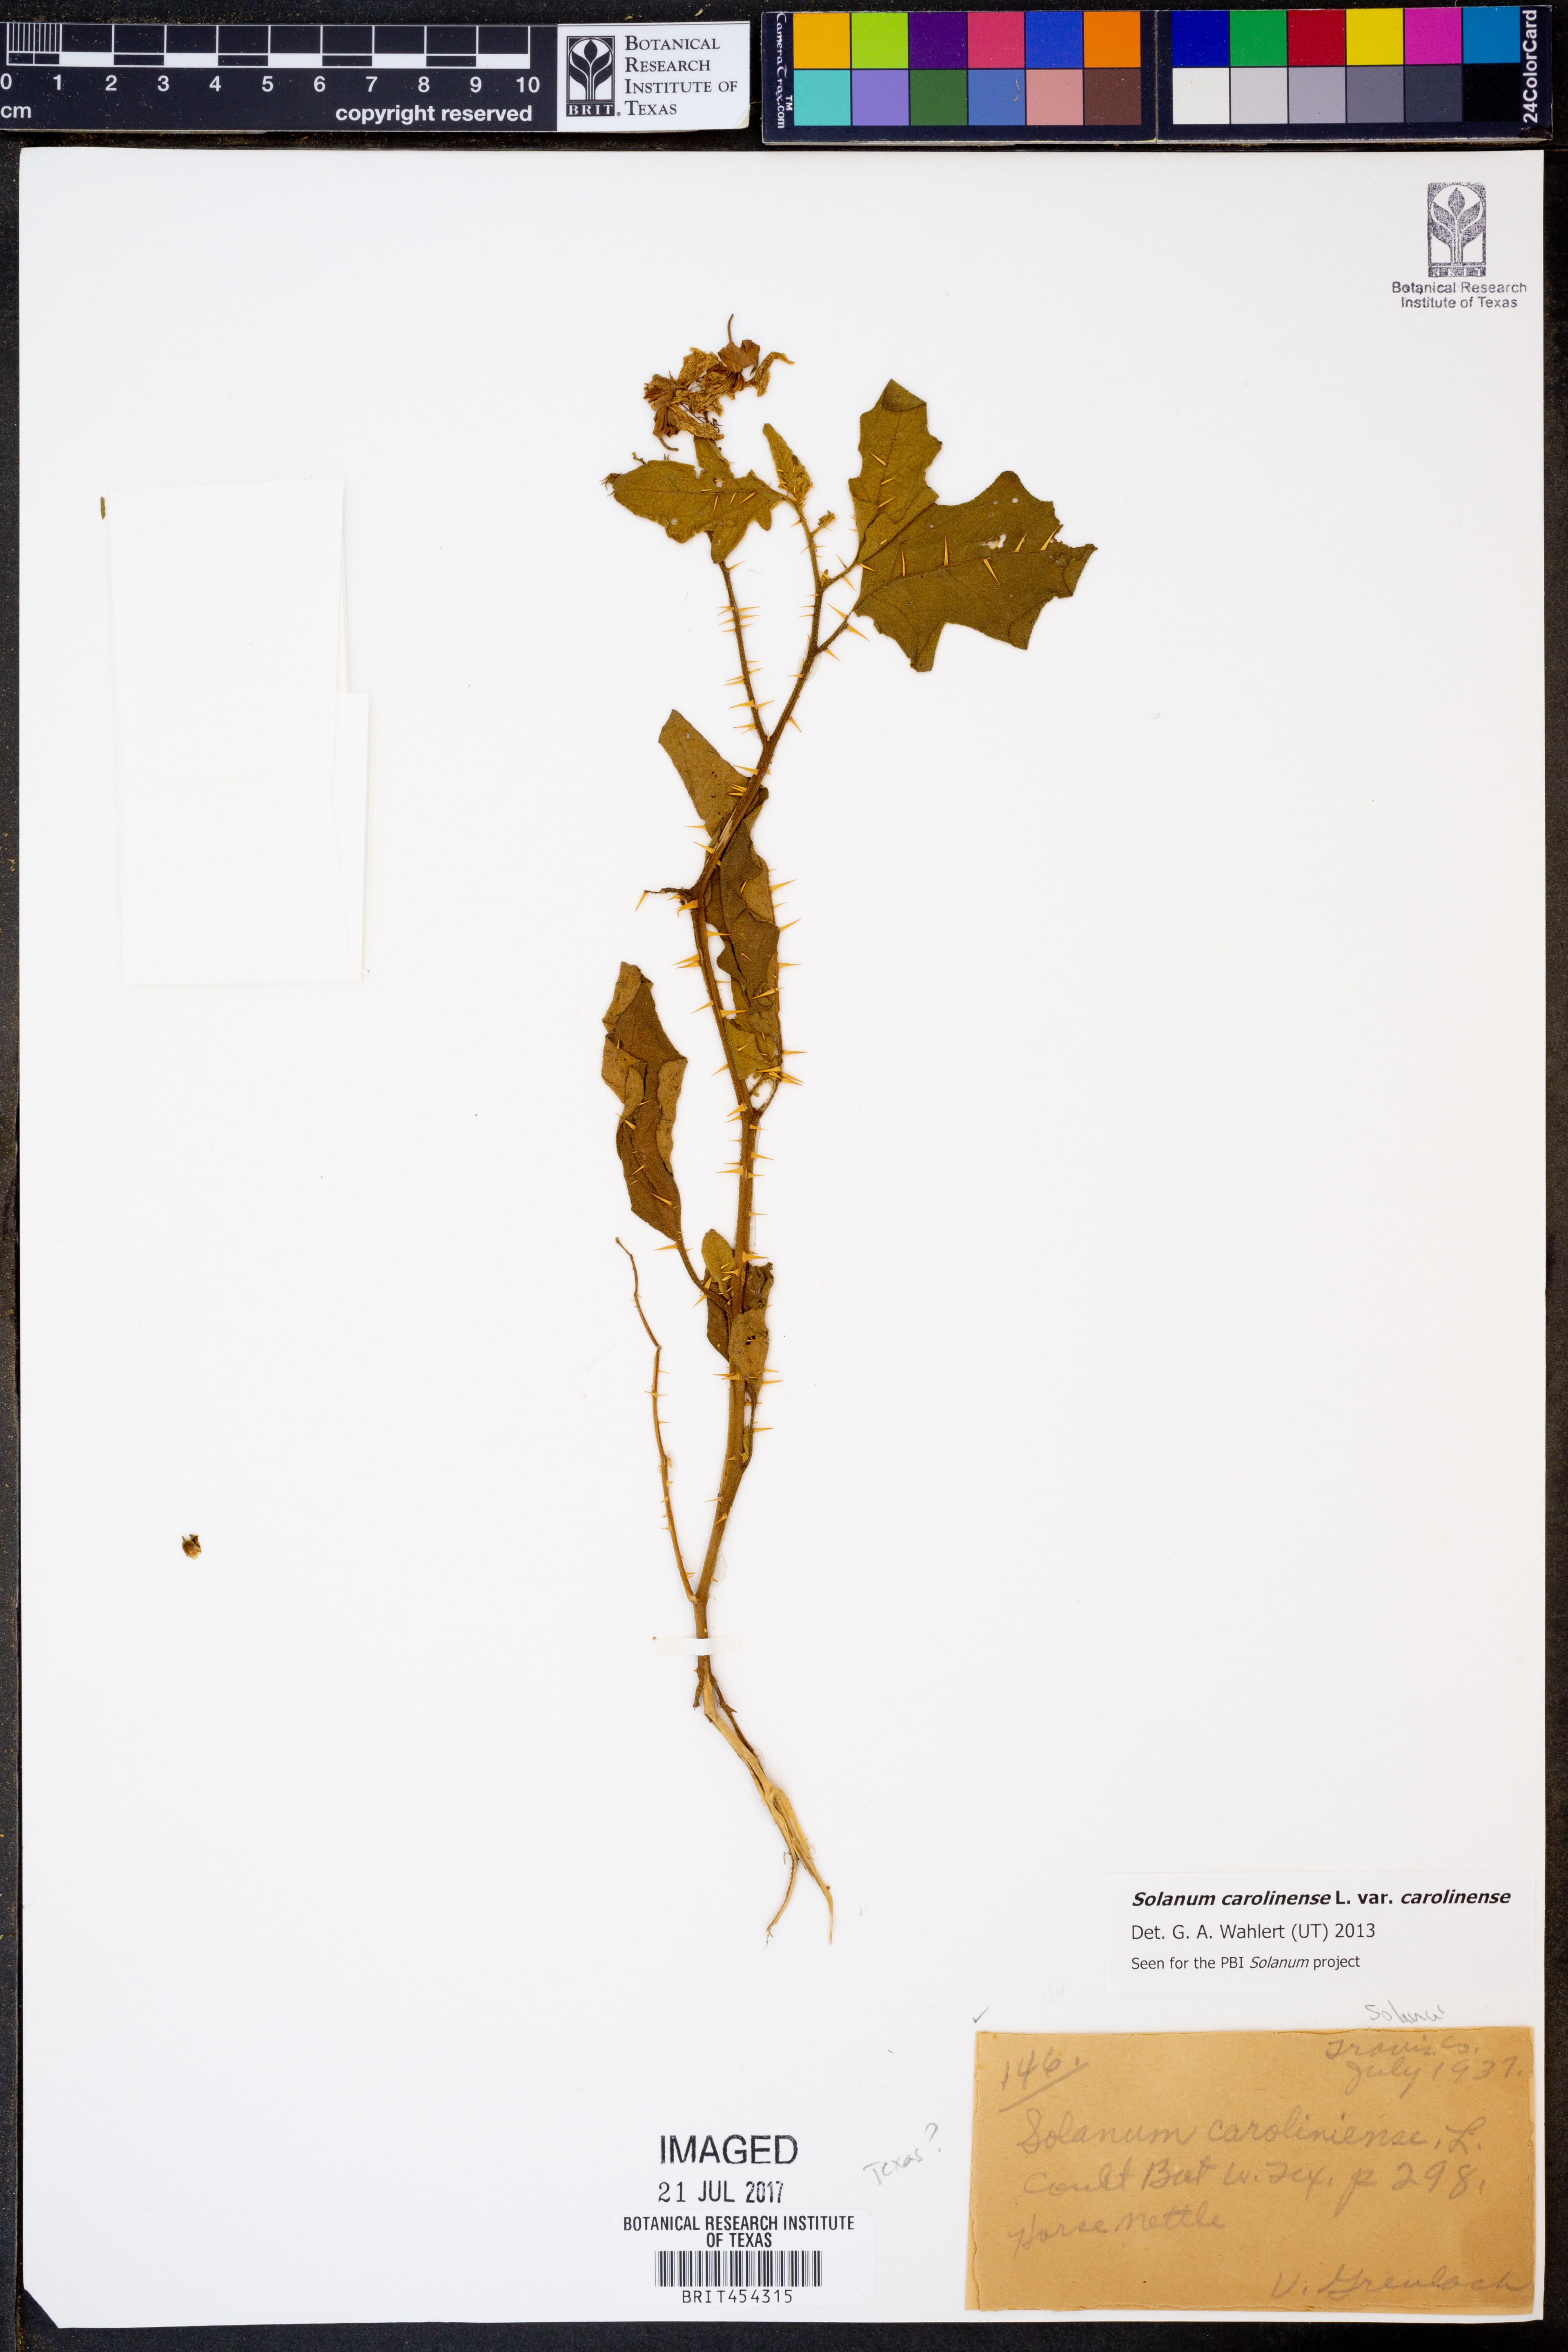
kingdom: Plantae
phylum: Tracheophyta
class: Magnoliopsida
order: Solanales
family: Solanaceae
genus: Solanum
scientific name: Solanum carolinense
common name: Horse-nettle
